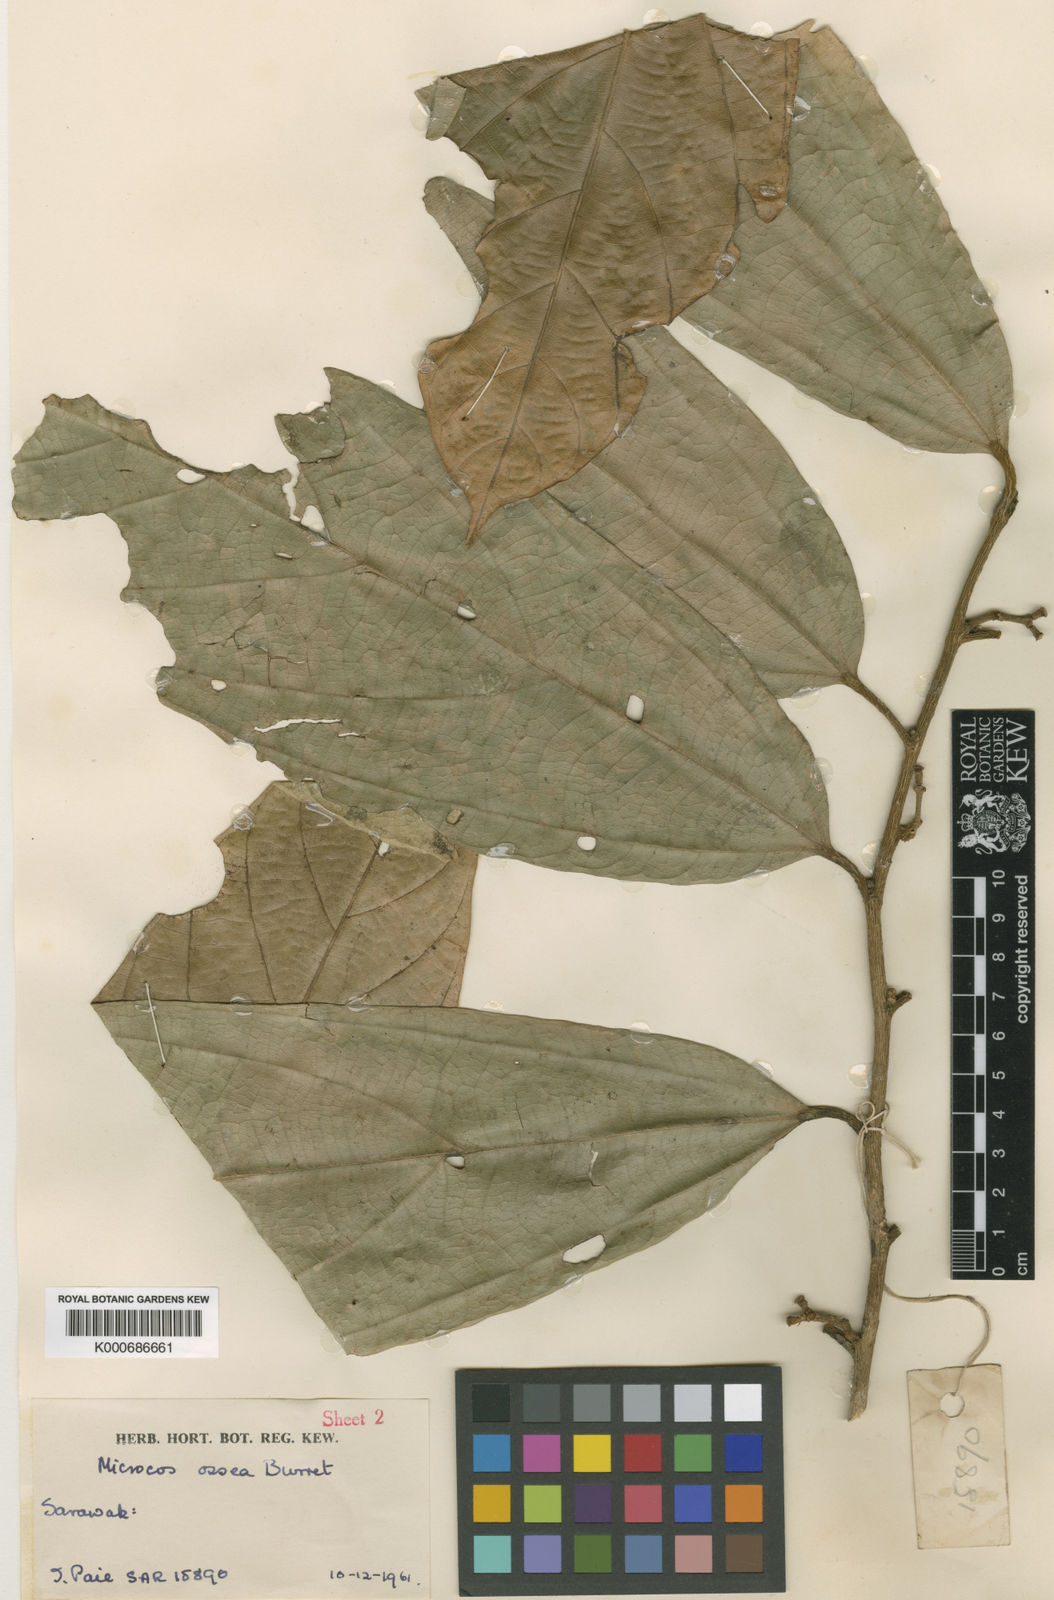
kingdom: Plantae
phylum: Tracheophyta
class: Magnoliopsida
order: Malvales
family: Malvaceae
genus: Microcos
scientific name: Microcos ossea
